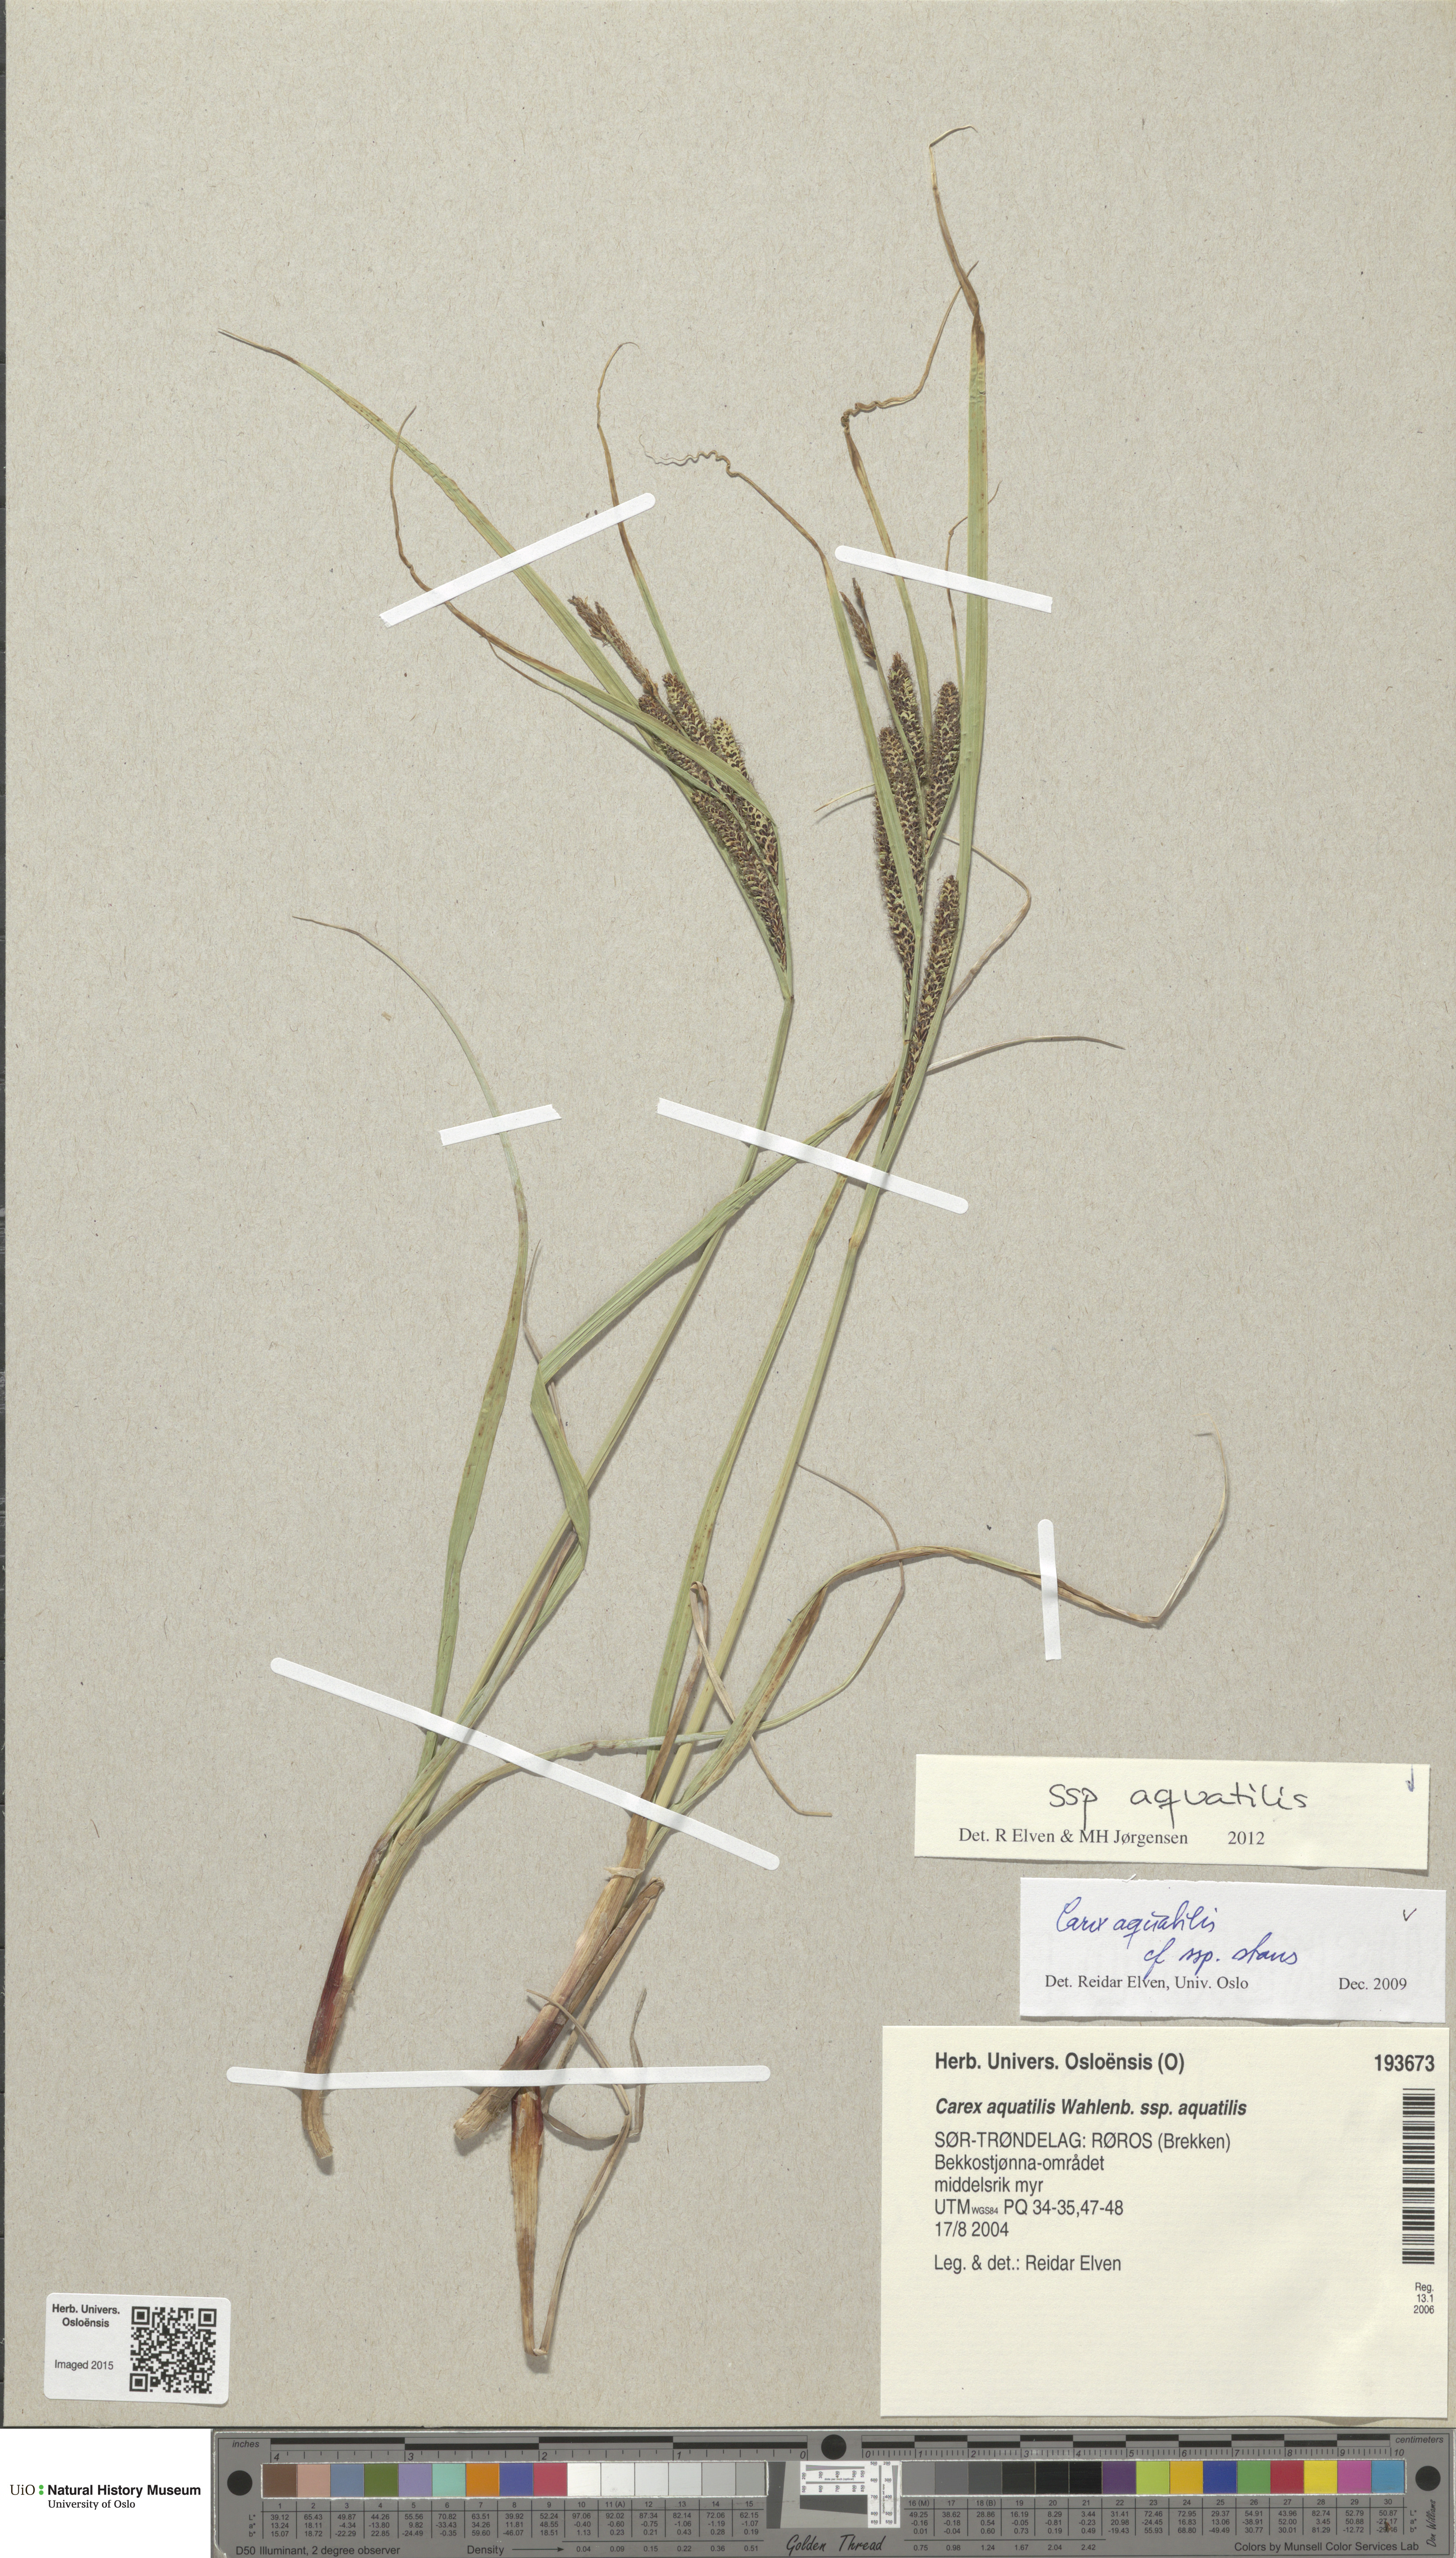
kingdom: Plantae
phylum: Tracheophyta
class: Liliopsida
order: Poales
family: Cyperaceae
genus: Carex
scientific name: Carex aquatilis
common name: Water sedge
